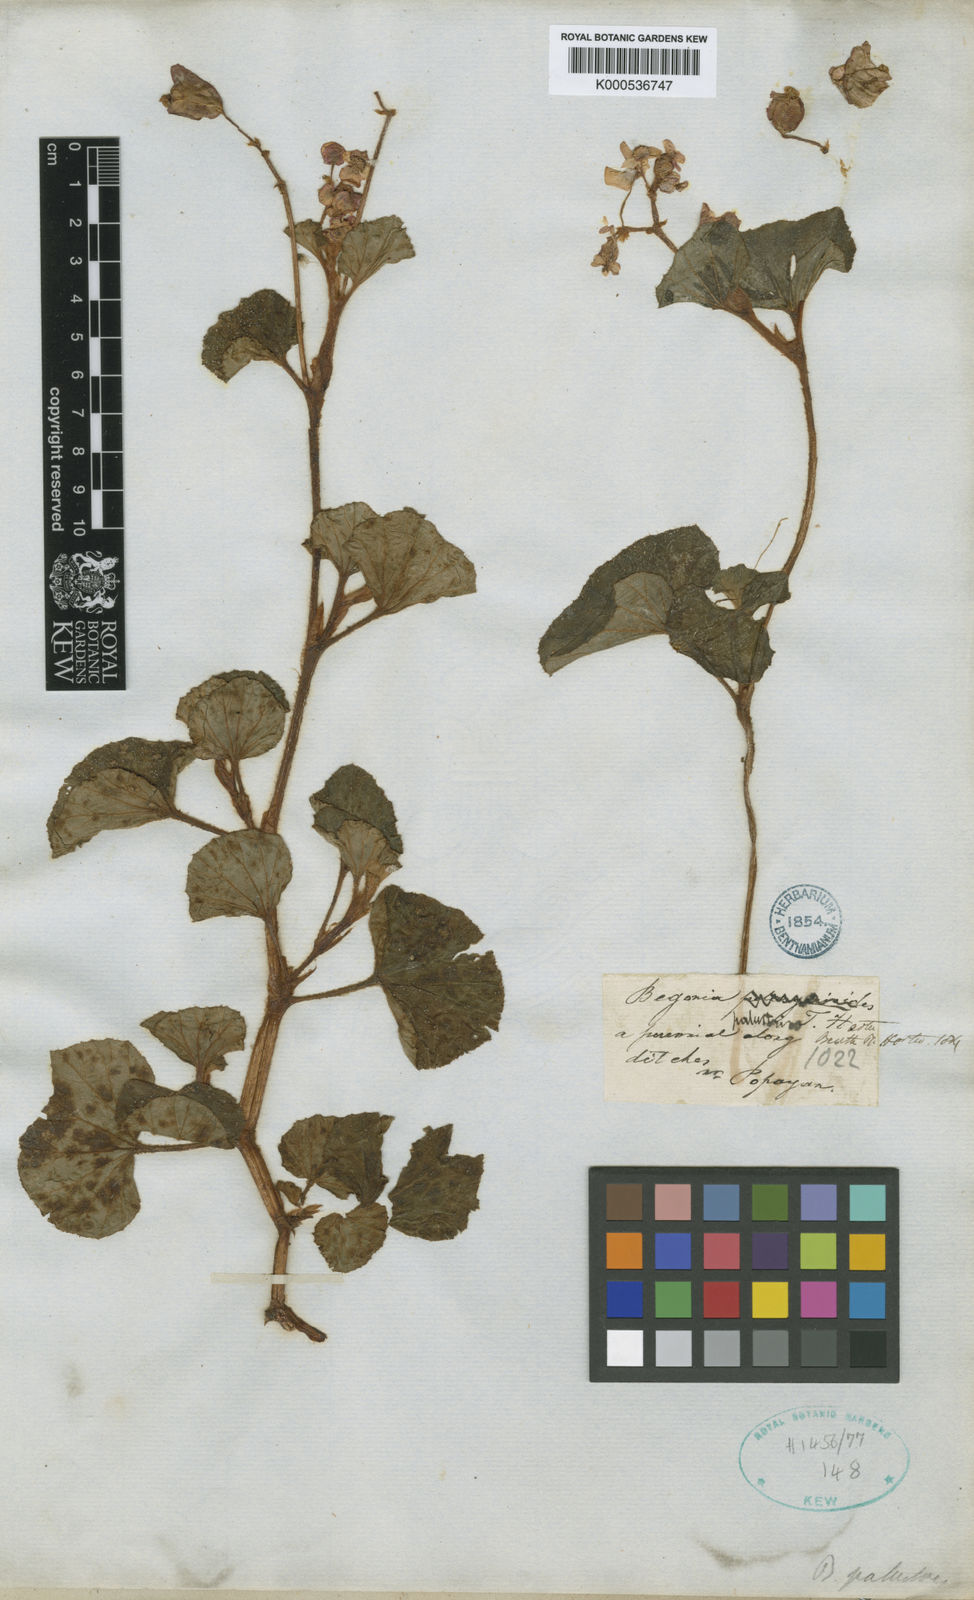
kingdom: Plantae
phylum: Tracheophyta
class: Magnoliopsida
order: Cucurbitales
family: Begoniaceae
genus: Begonia
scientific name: Begonia fischeri
